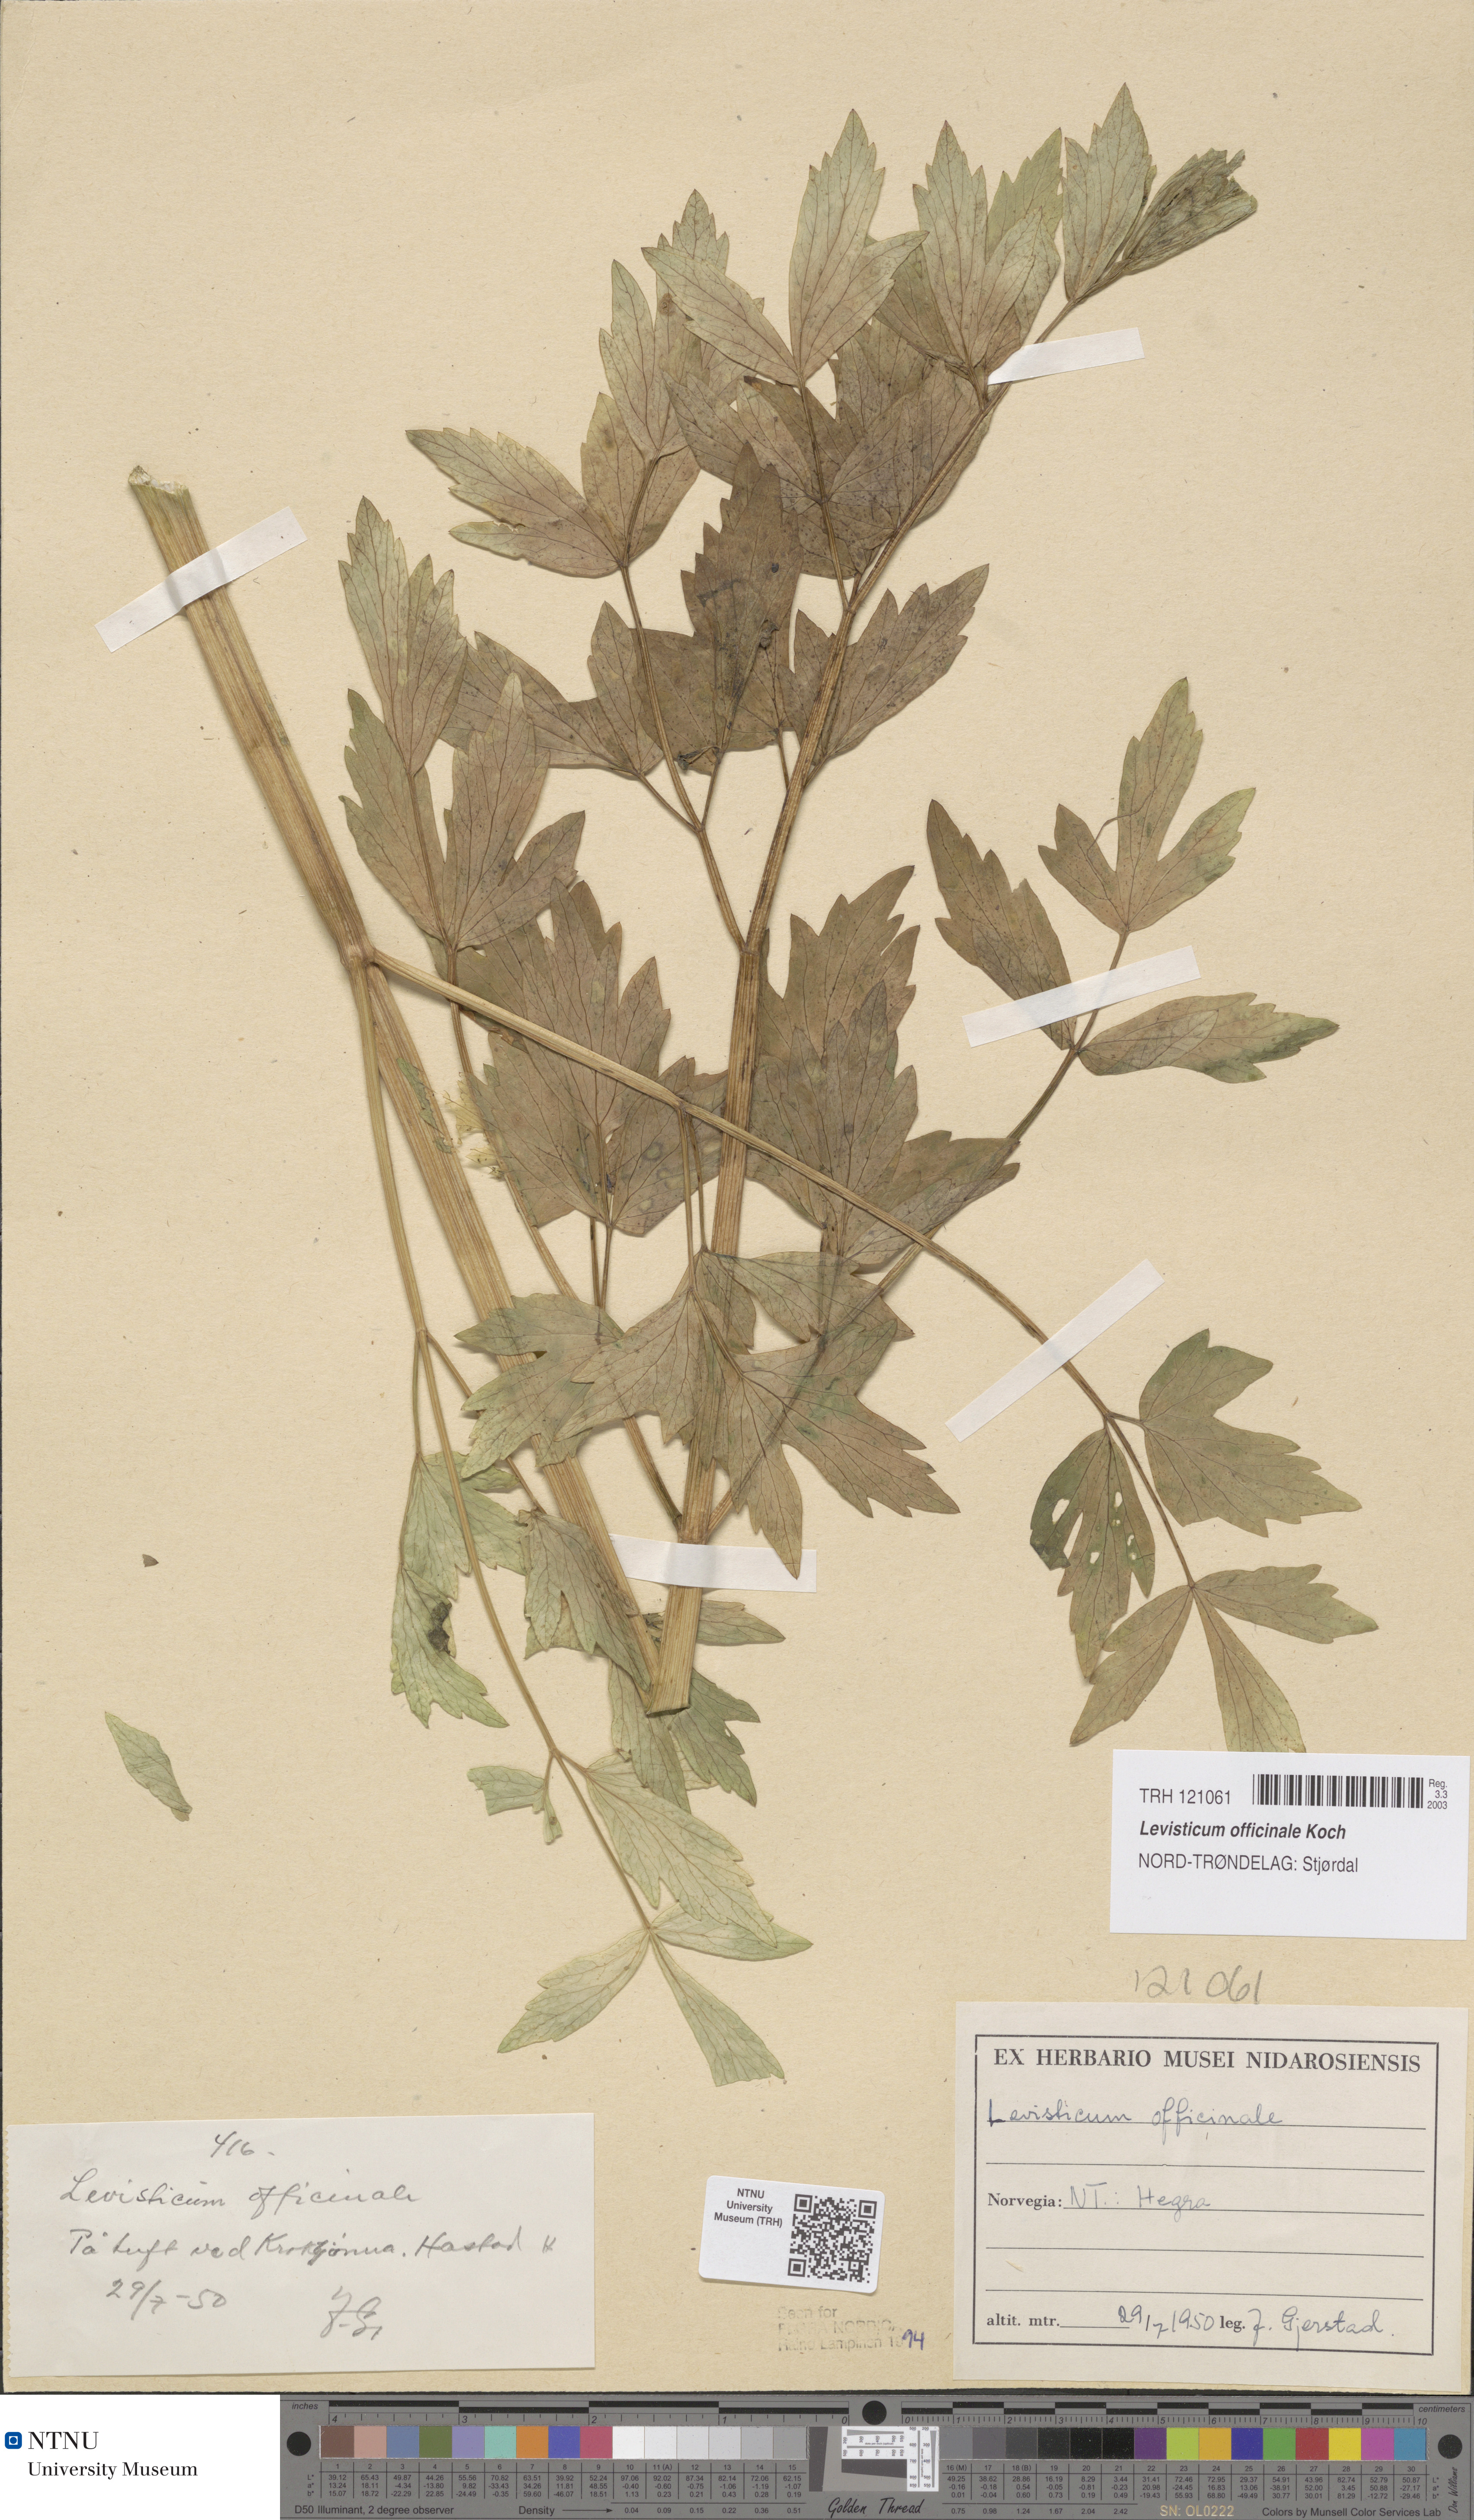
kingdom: Plantae
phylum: Tracheophyta
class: Magnoliopsida
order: Apiales
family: Apiaceae
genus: Levisticum
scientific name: Levisticum officinale
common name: Lovage
